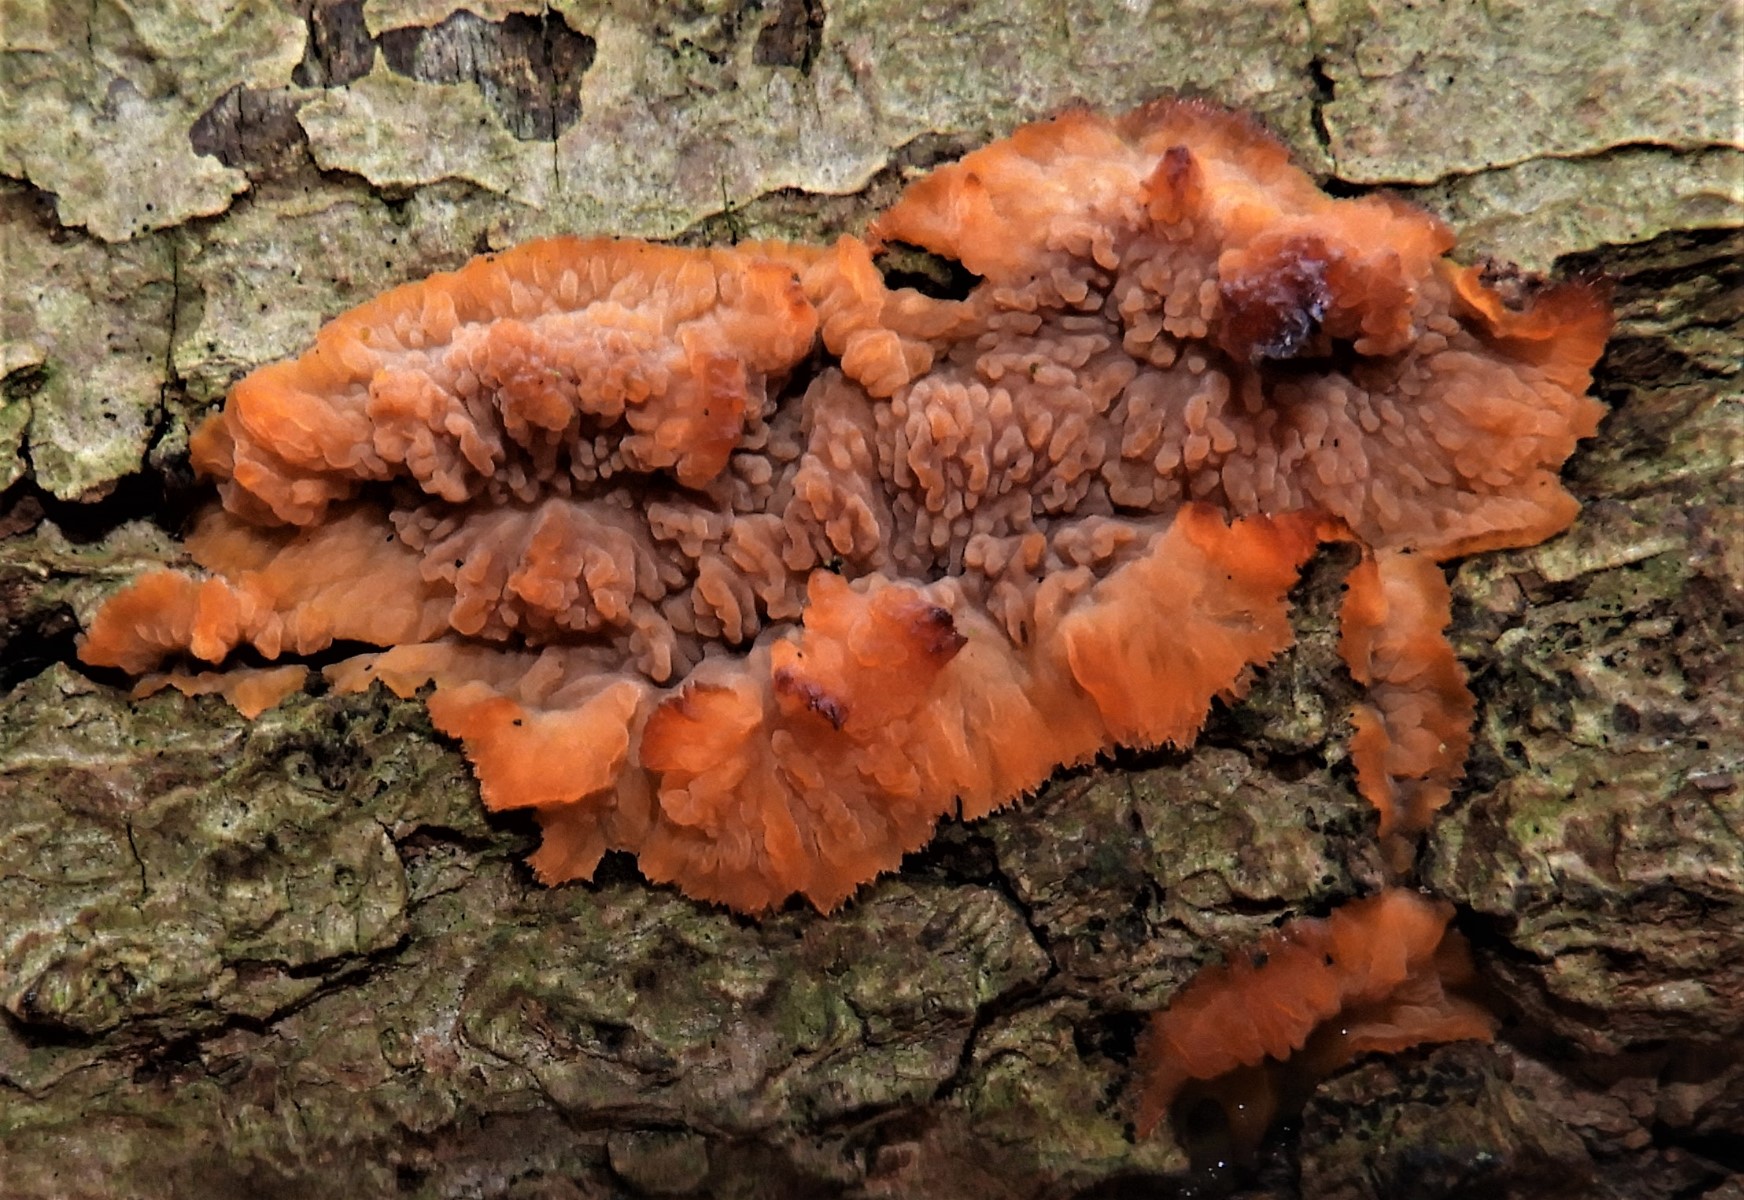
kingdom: Fungi
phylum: Basidiomycota
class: Agaricomycetes
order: Polyporales
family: Meruliaceae
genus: Phlebia
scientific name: Phlebia radiata
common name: stråle-åresvamp
